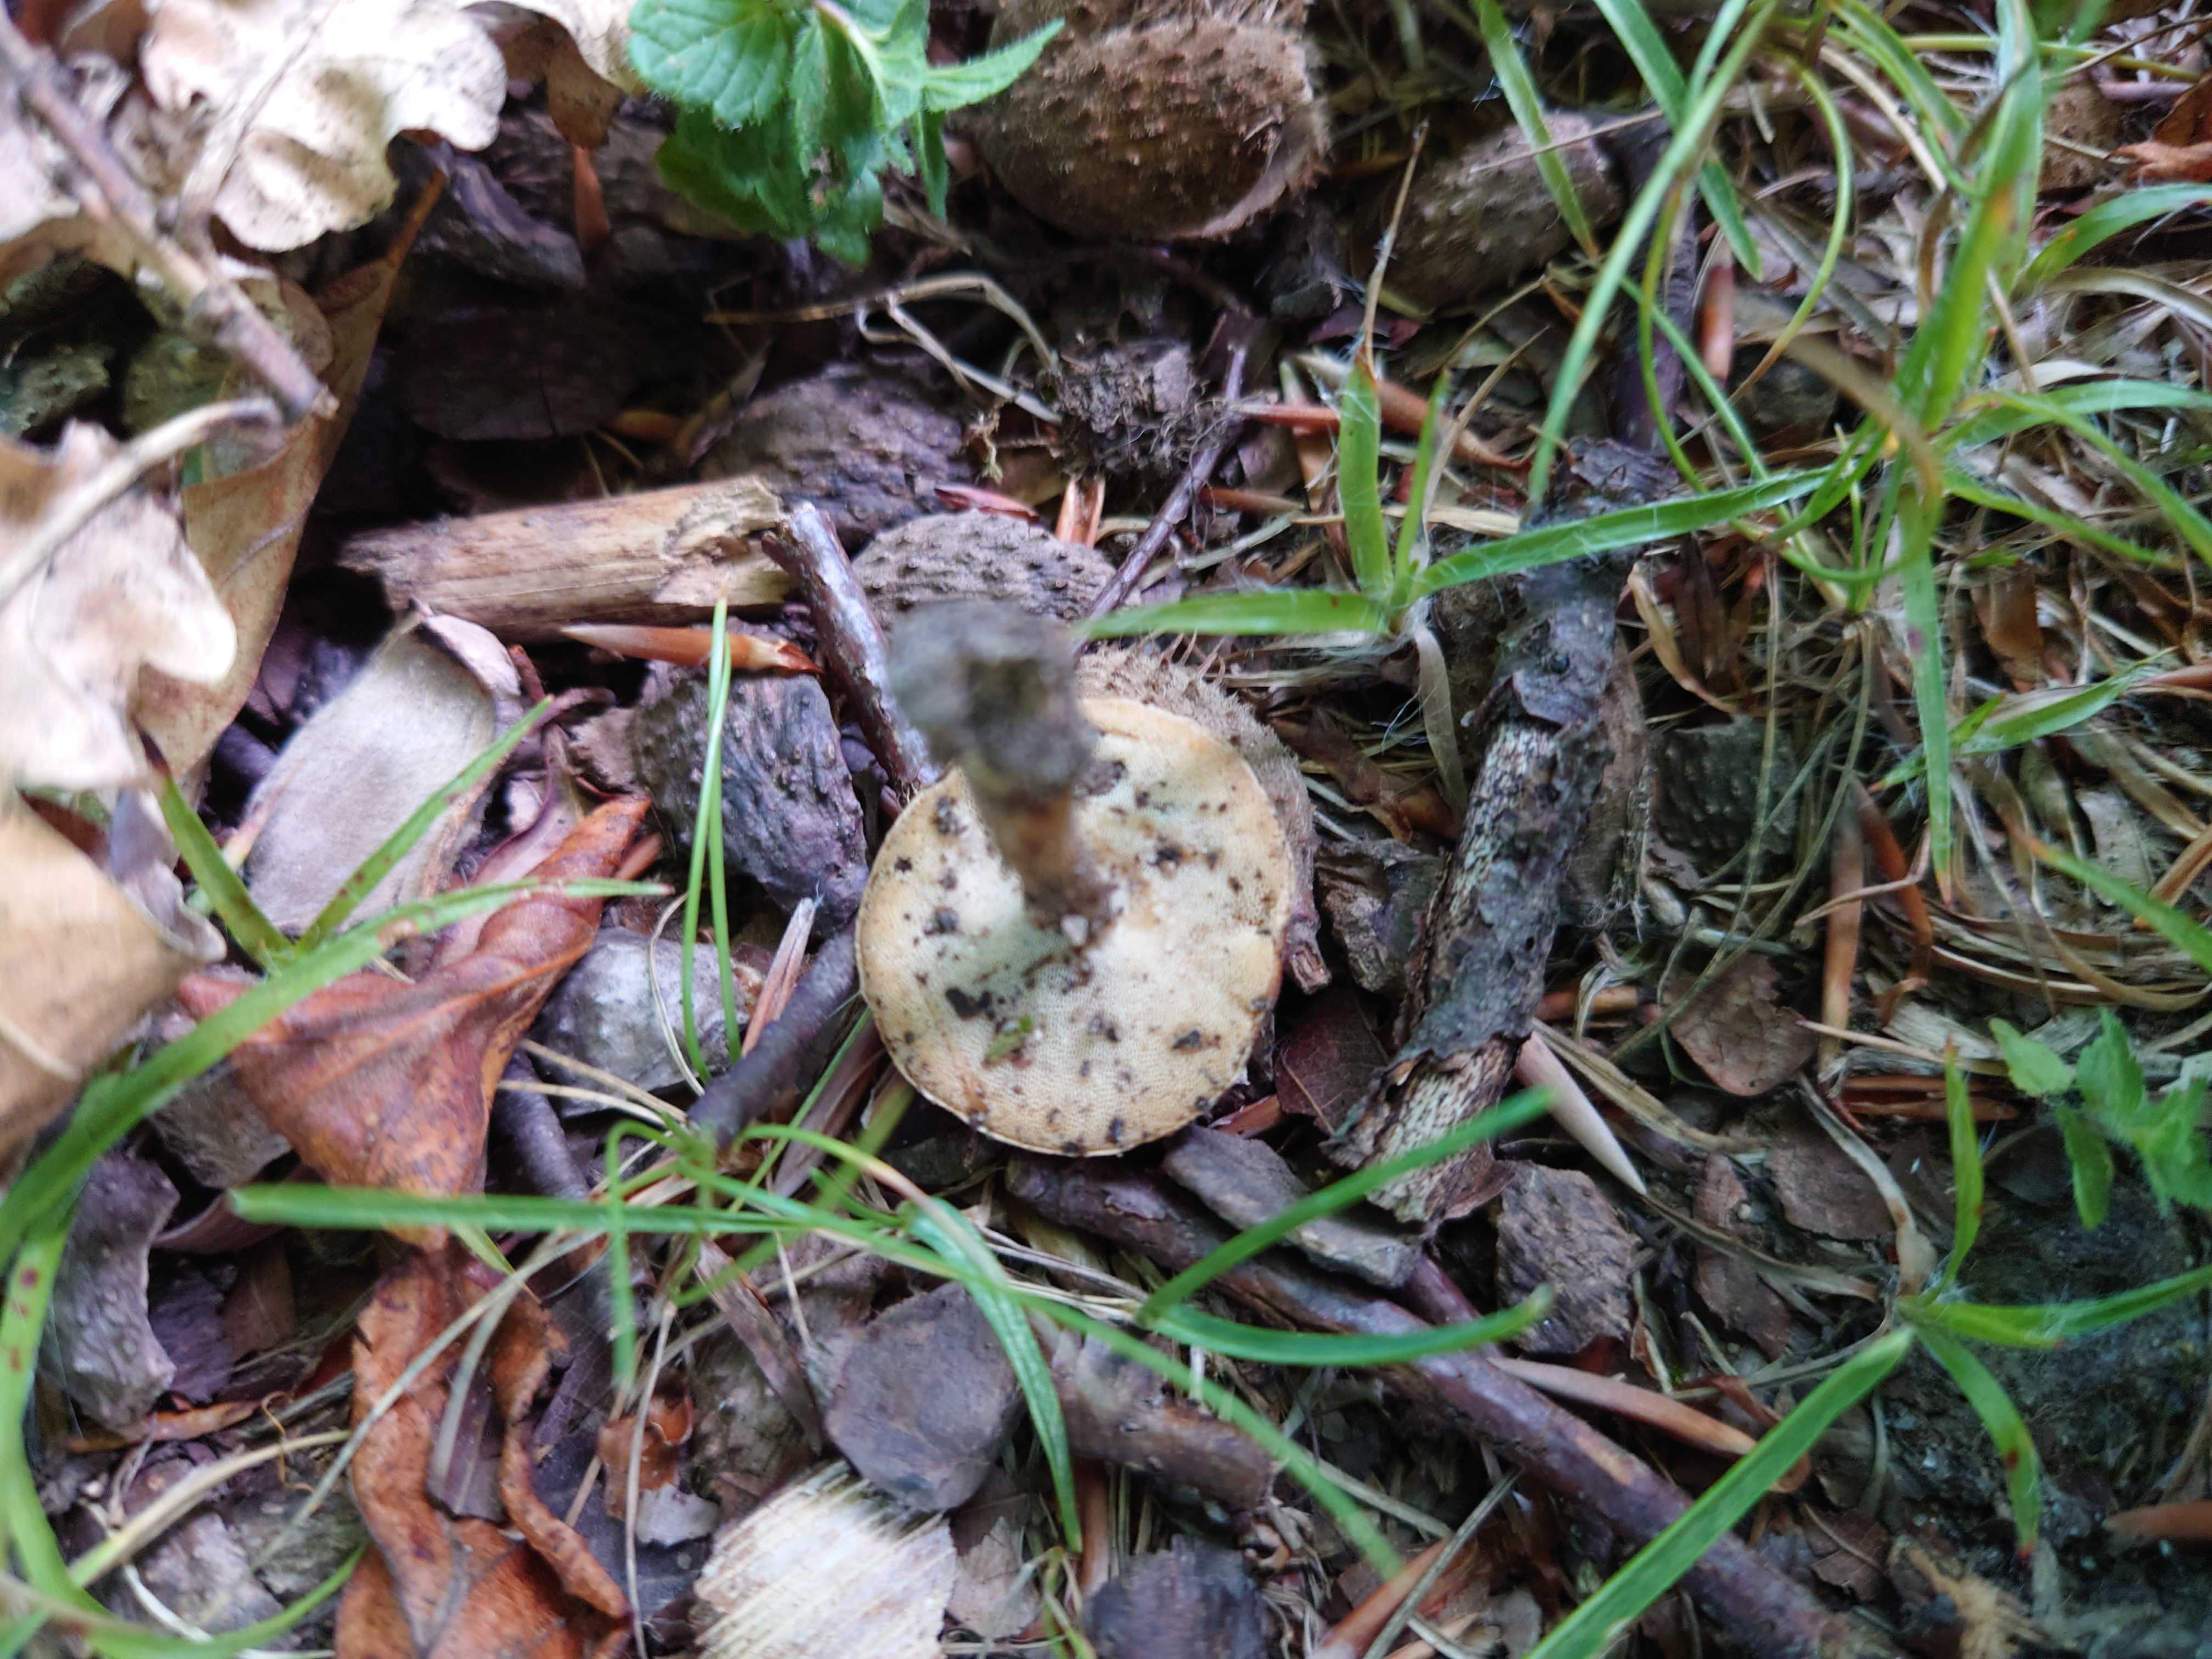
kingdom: Fungi
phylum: Basidiomycota
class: Agaricomycetes
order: Polyporales
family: Polyporaceae
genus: Lentinus
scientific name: Lentinus substrictus
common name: forårs-stilkporesvamp
